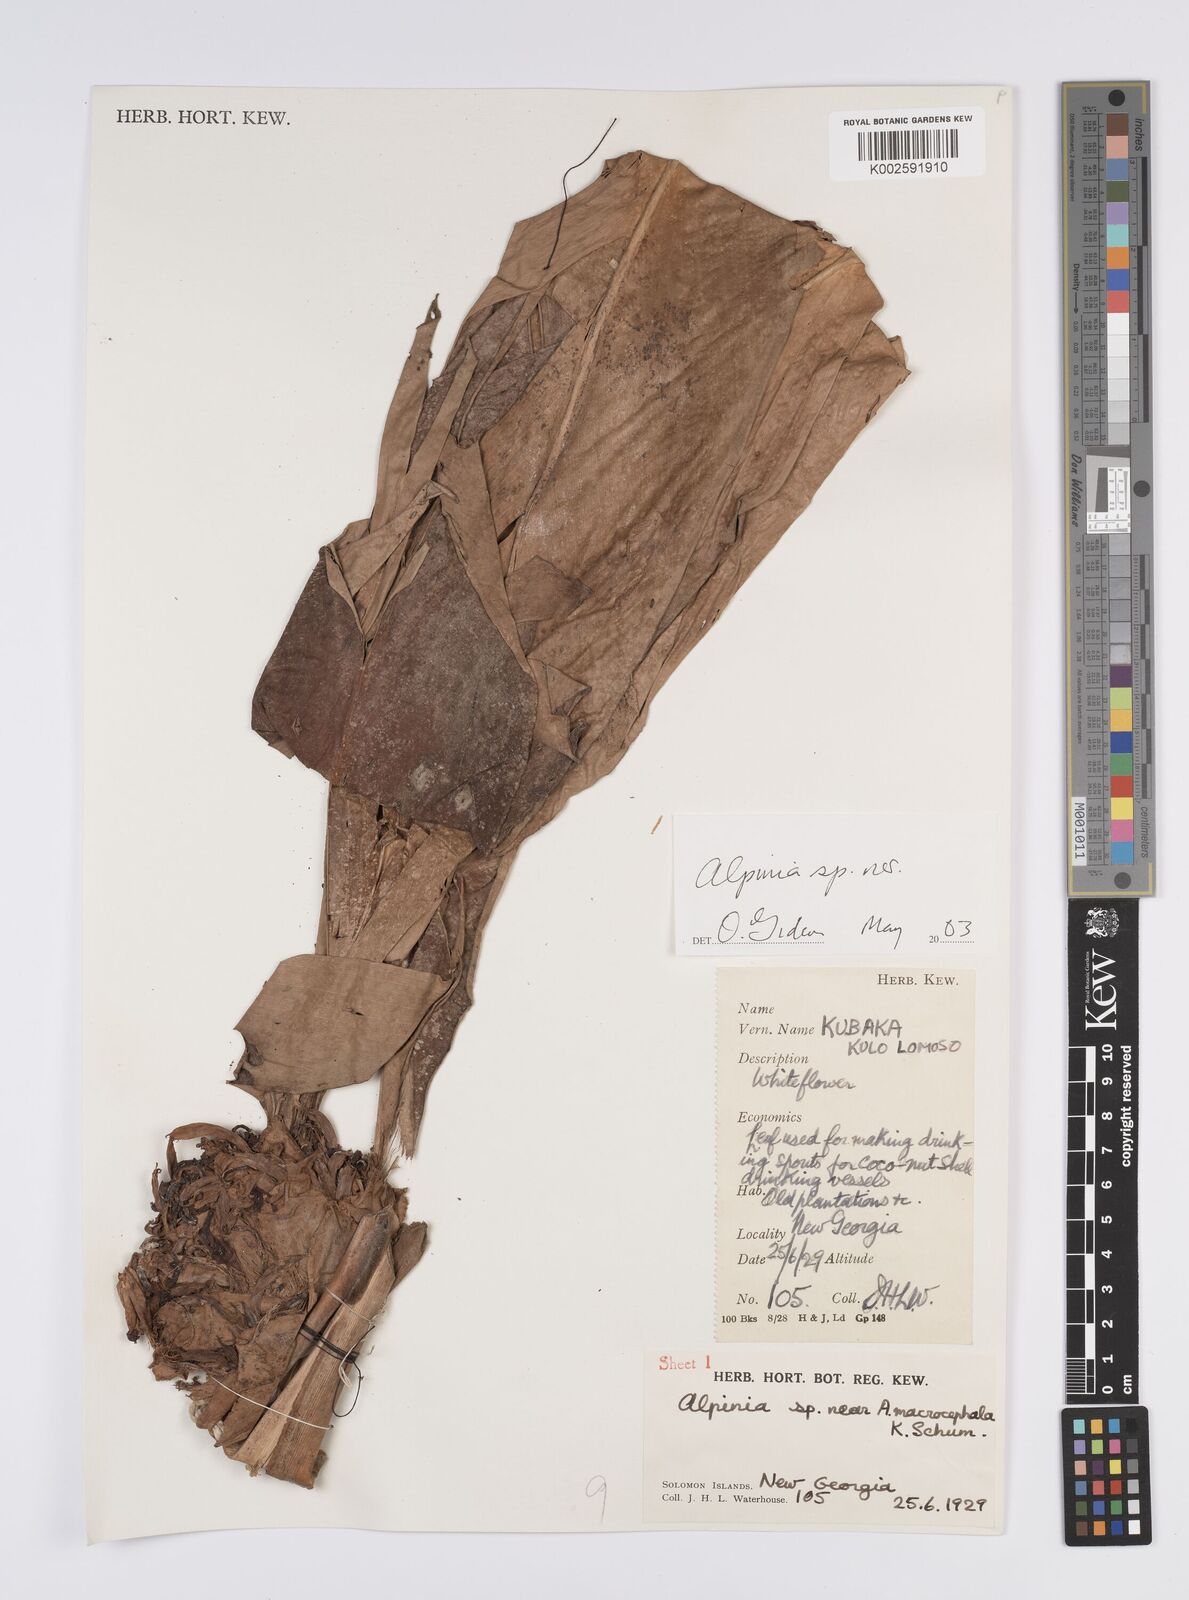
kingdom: Plantae
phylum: Tracheophyta
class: Liliopsida
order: Zingiberales
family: Zingiberaceae
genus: Alpinia
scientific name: Alpinia macrocephala
